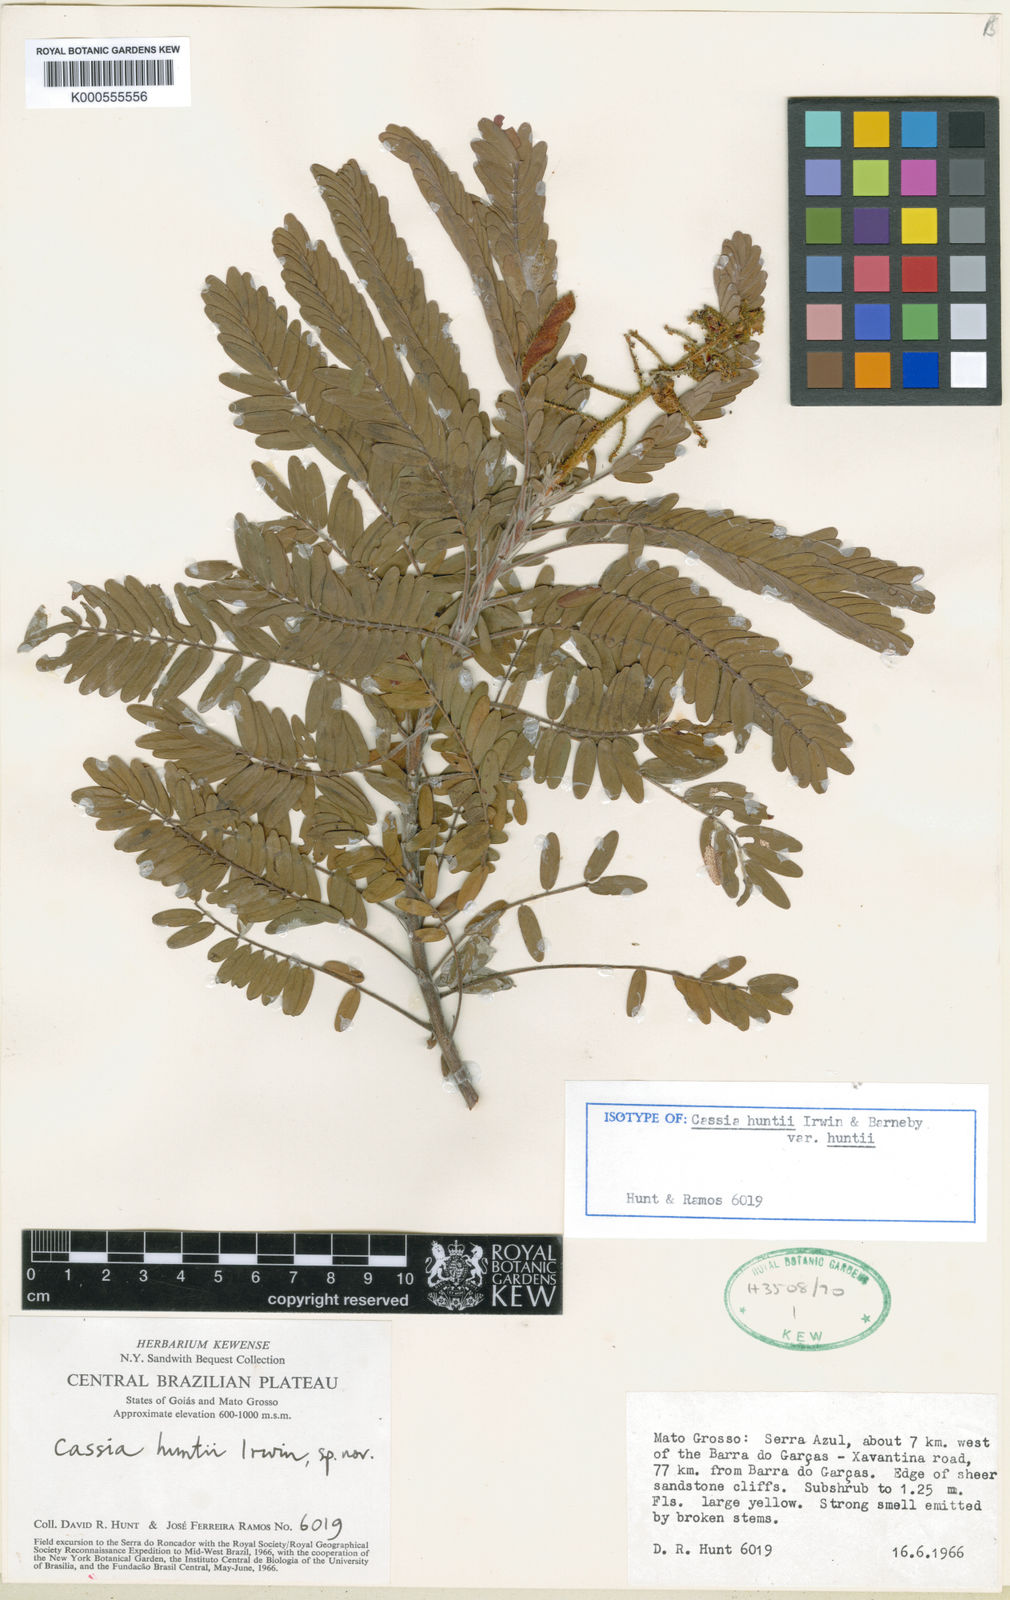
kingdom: Plantae
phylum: Tracheophyta
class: Magnoliopsida
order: Fabales
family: Fabaceae
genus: Chamaecrista
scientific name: Chamaecrista huntii
